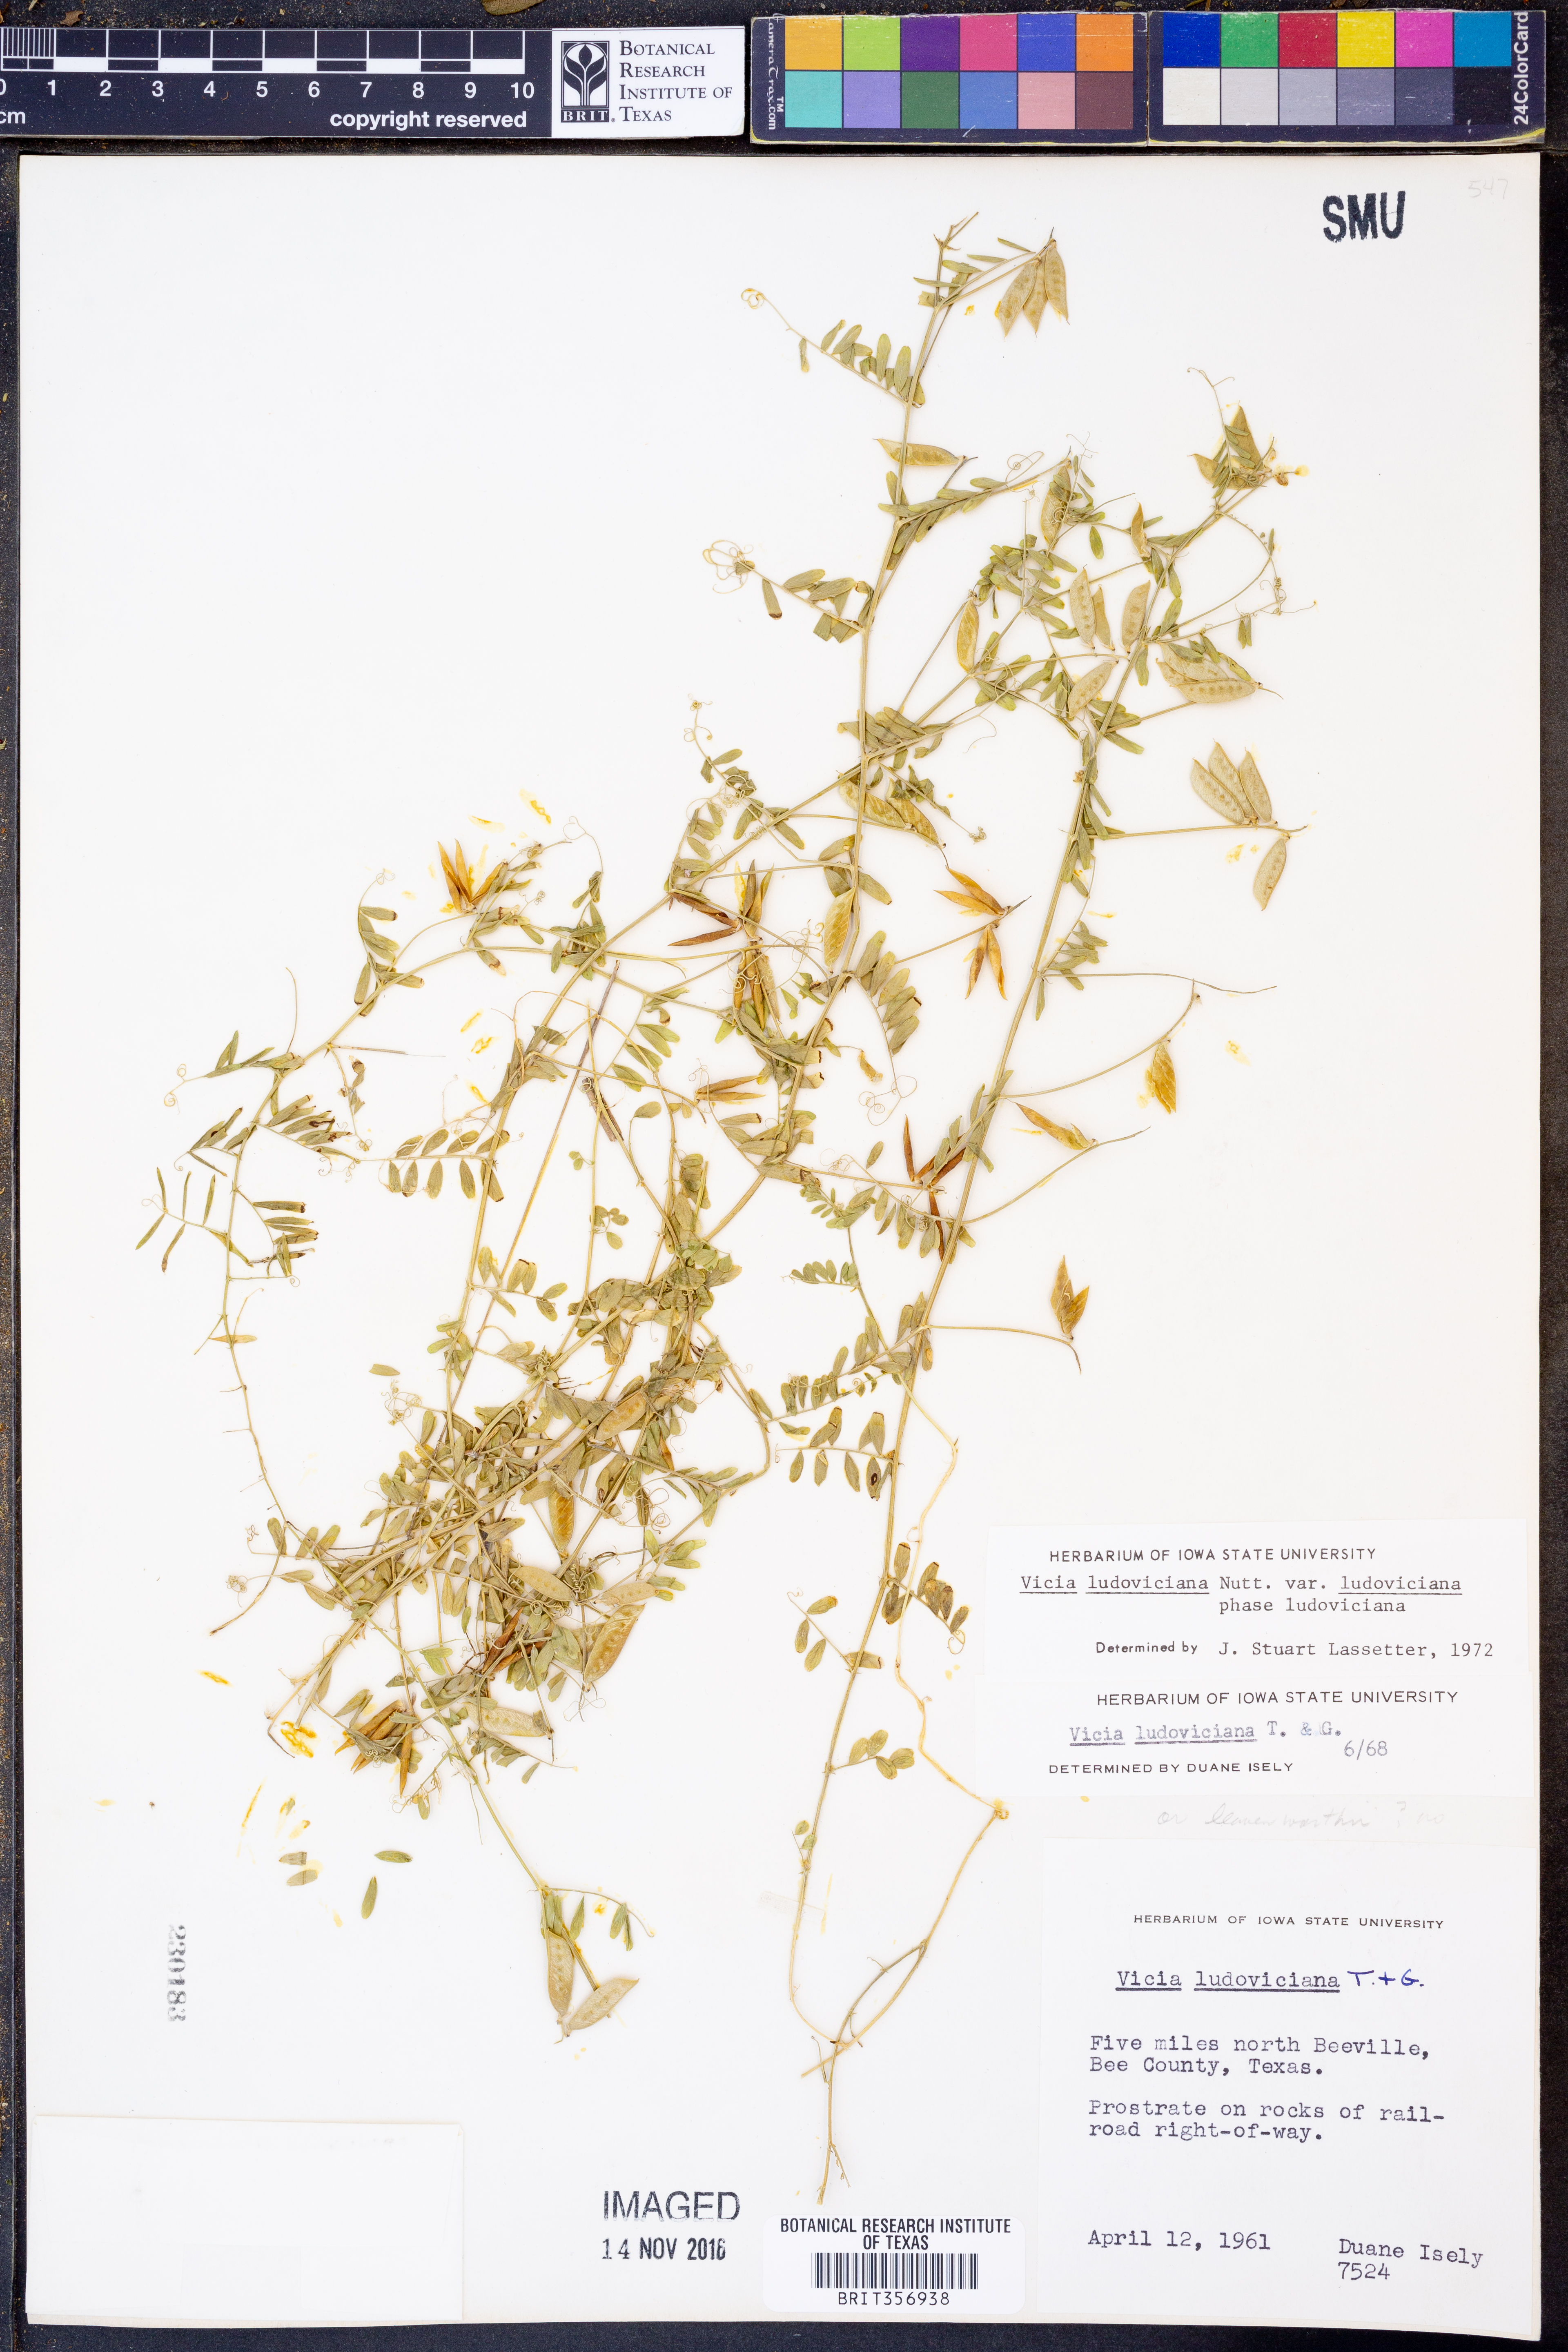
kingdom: Plantae
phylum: Tracheophyta
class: Magnoliopsida
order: Fabales
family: Fabaceae
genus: Vicia
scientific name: Vicia ludoviciana
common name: Louisiana vetch
